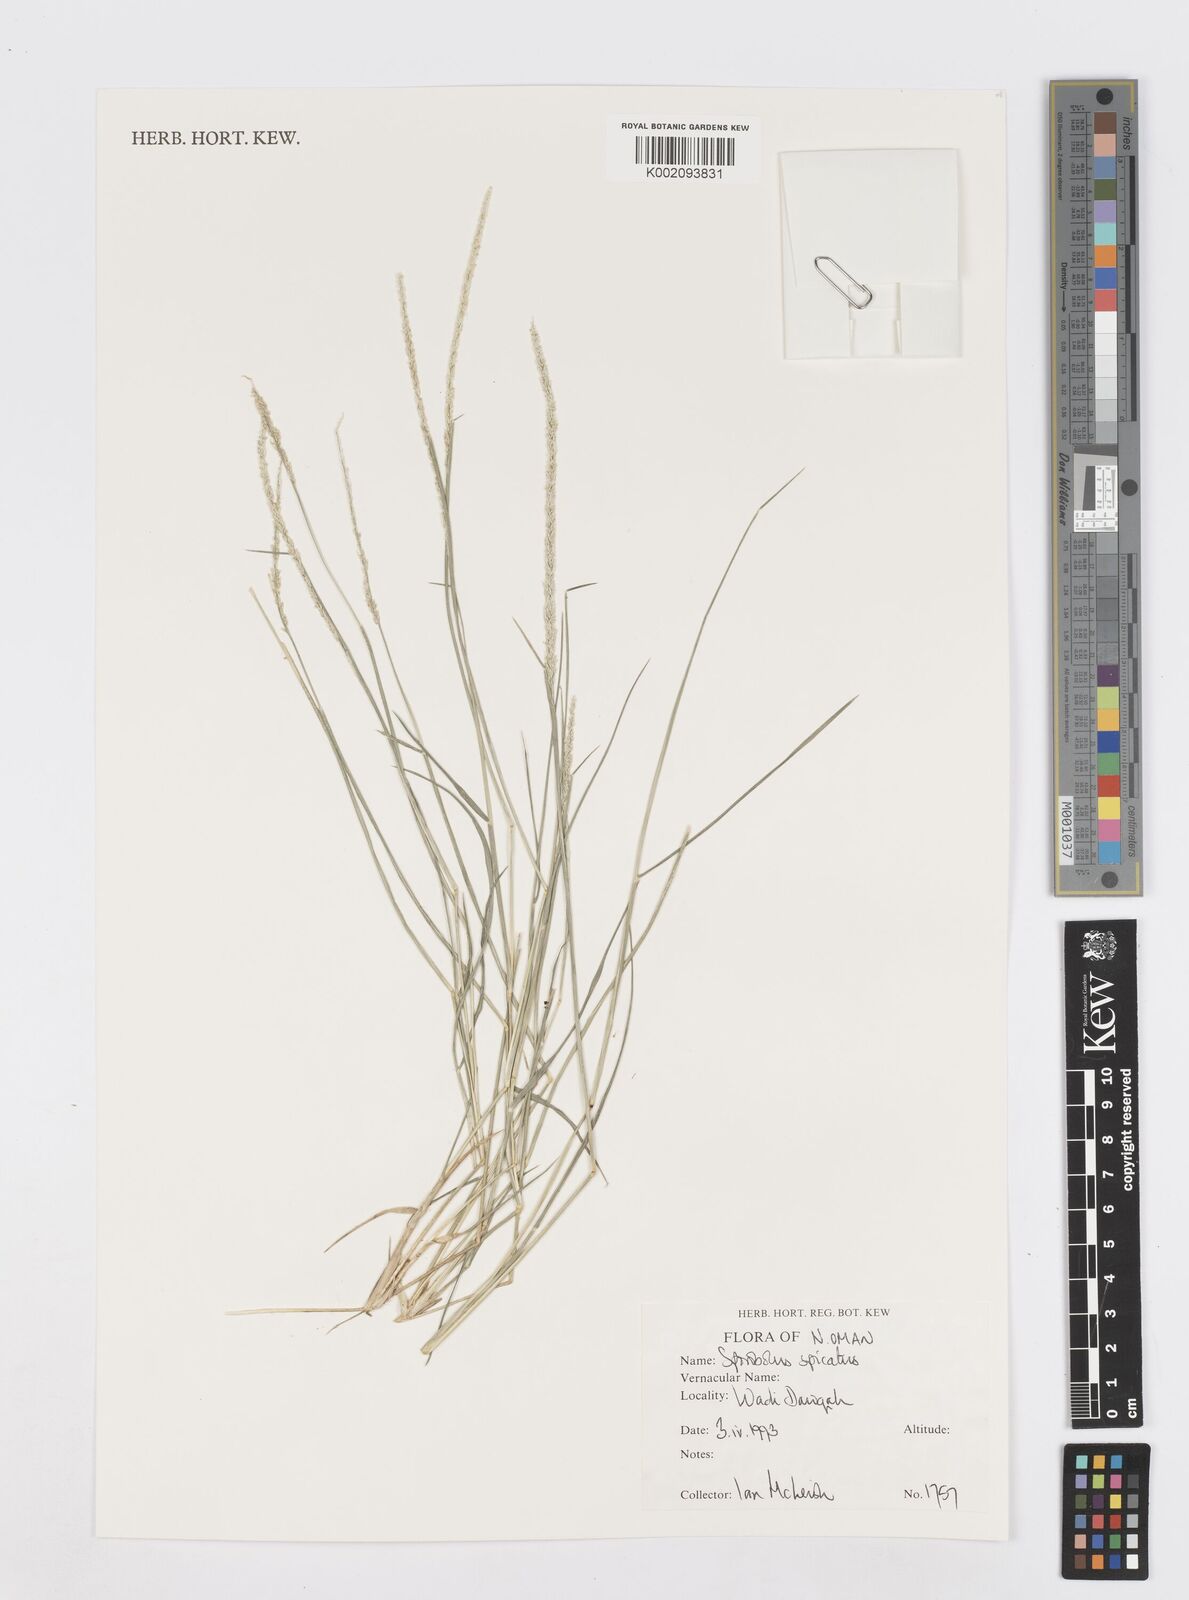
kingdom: Plantae
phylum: Tracheophyta
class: Liliopsida
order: Poales
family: Poaceae
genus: Sporobolus
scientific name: Sporobolus spicatus
